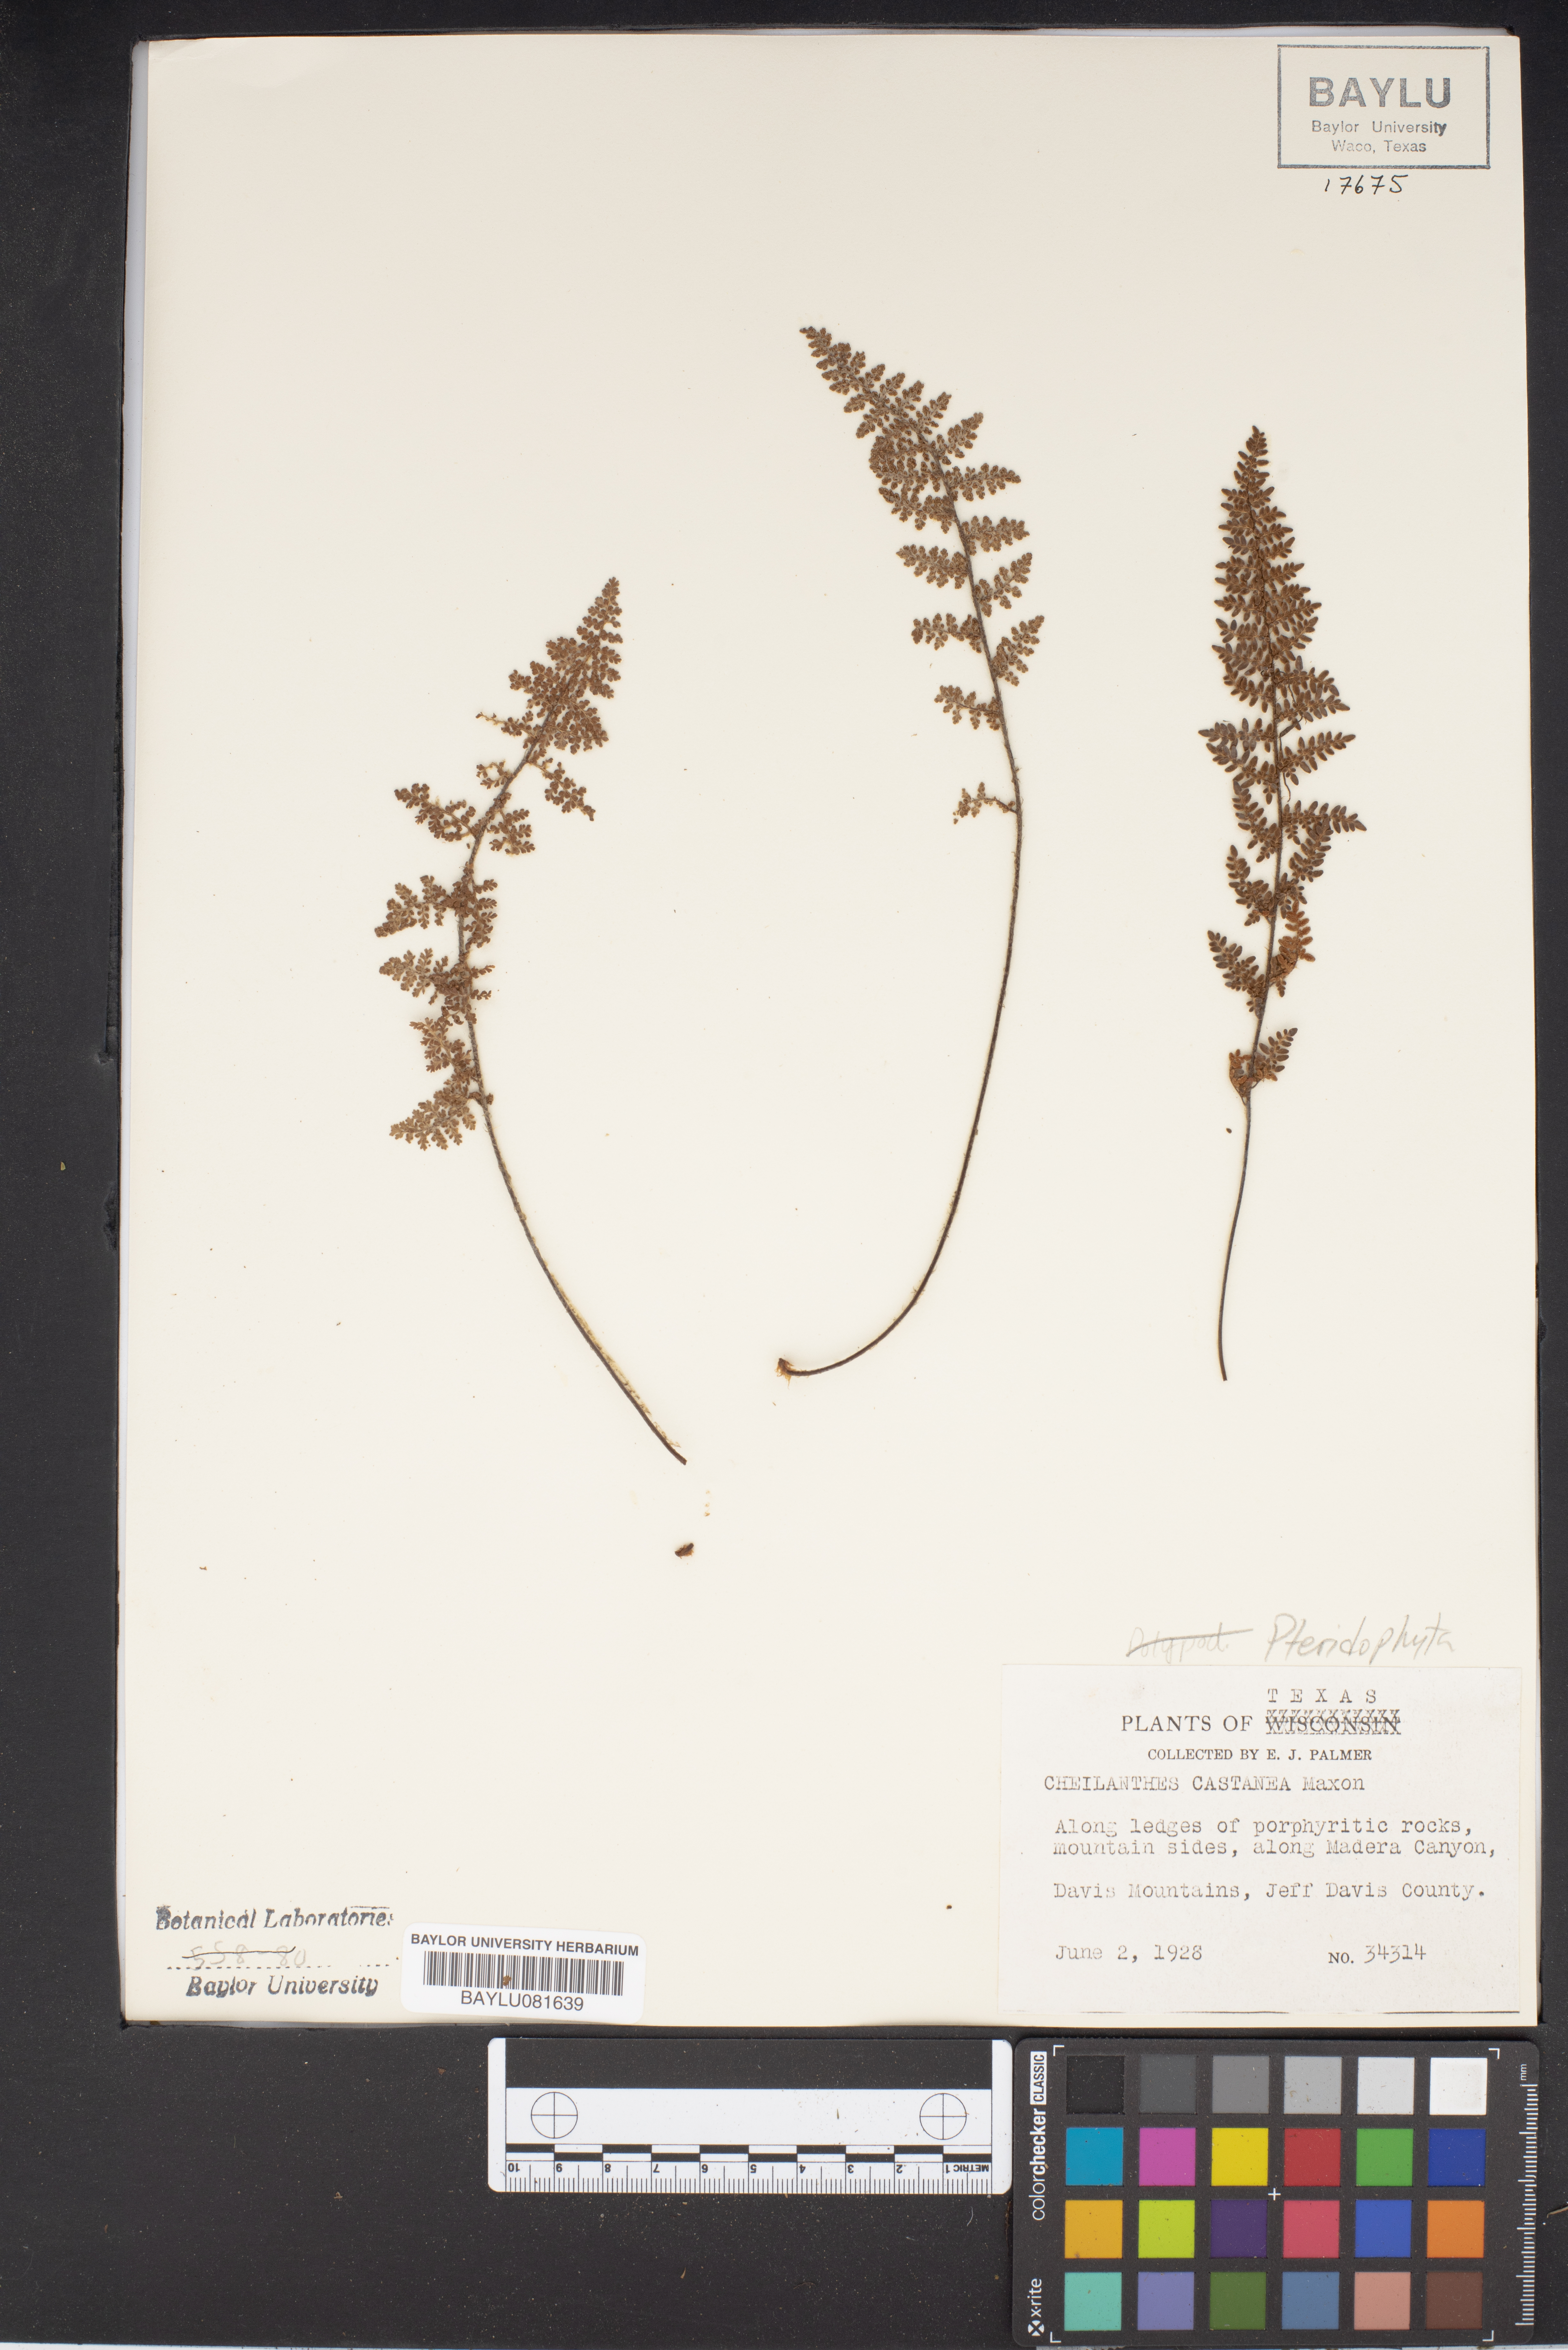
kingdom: Plantae
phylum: Tracheophyta
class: Polypodiopsida
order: Polypodiales
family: Pteridaceae
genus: Myriopteris
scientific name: Myriopteris rufa
